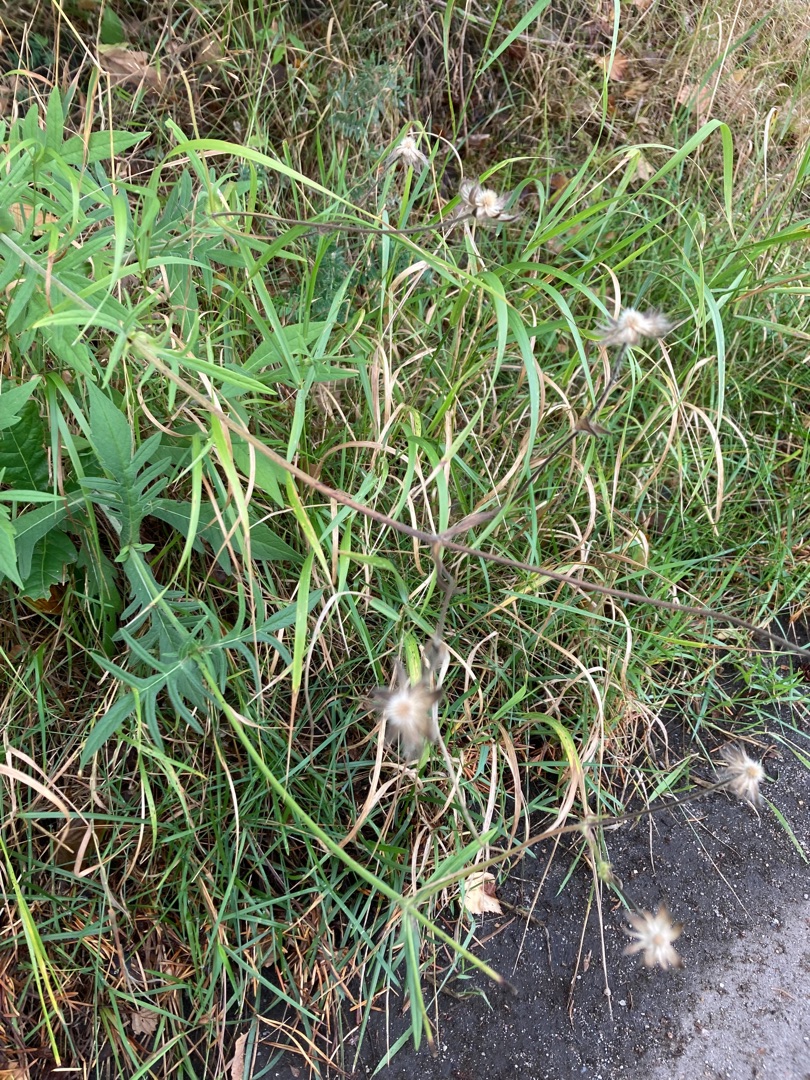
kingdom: Plantae
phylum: Tracheophyta
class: Magnoliopsida
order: Dipsacales
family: Caprifoliaceae
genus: Knautia
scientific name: Knautia arvensis
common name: Blåhat
